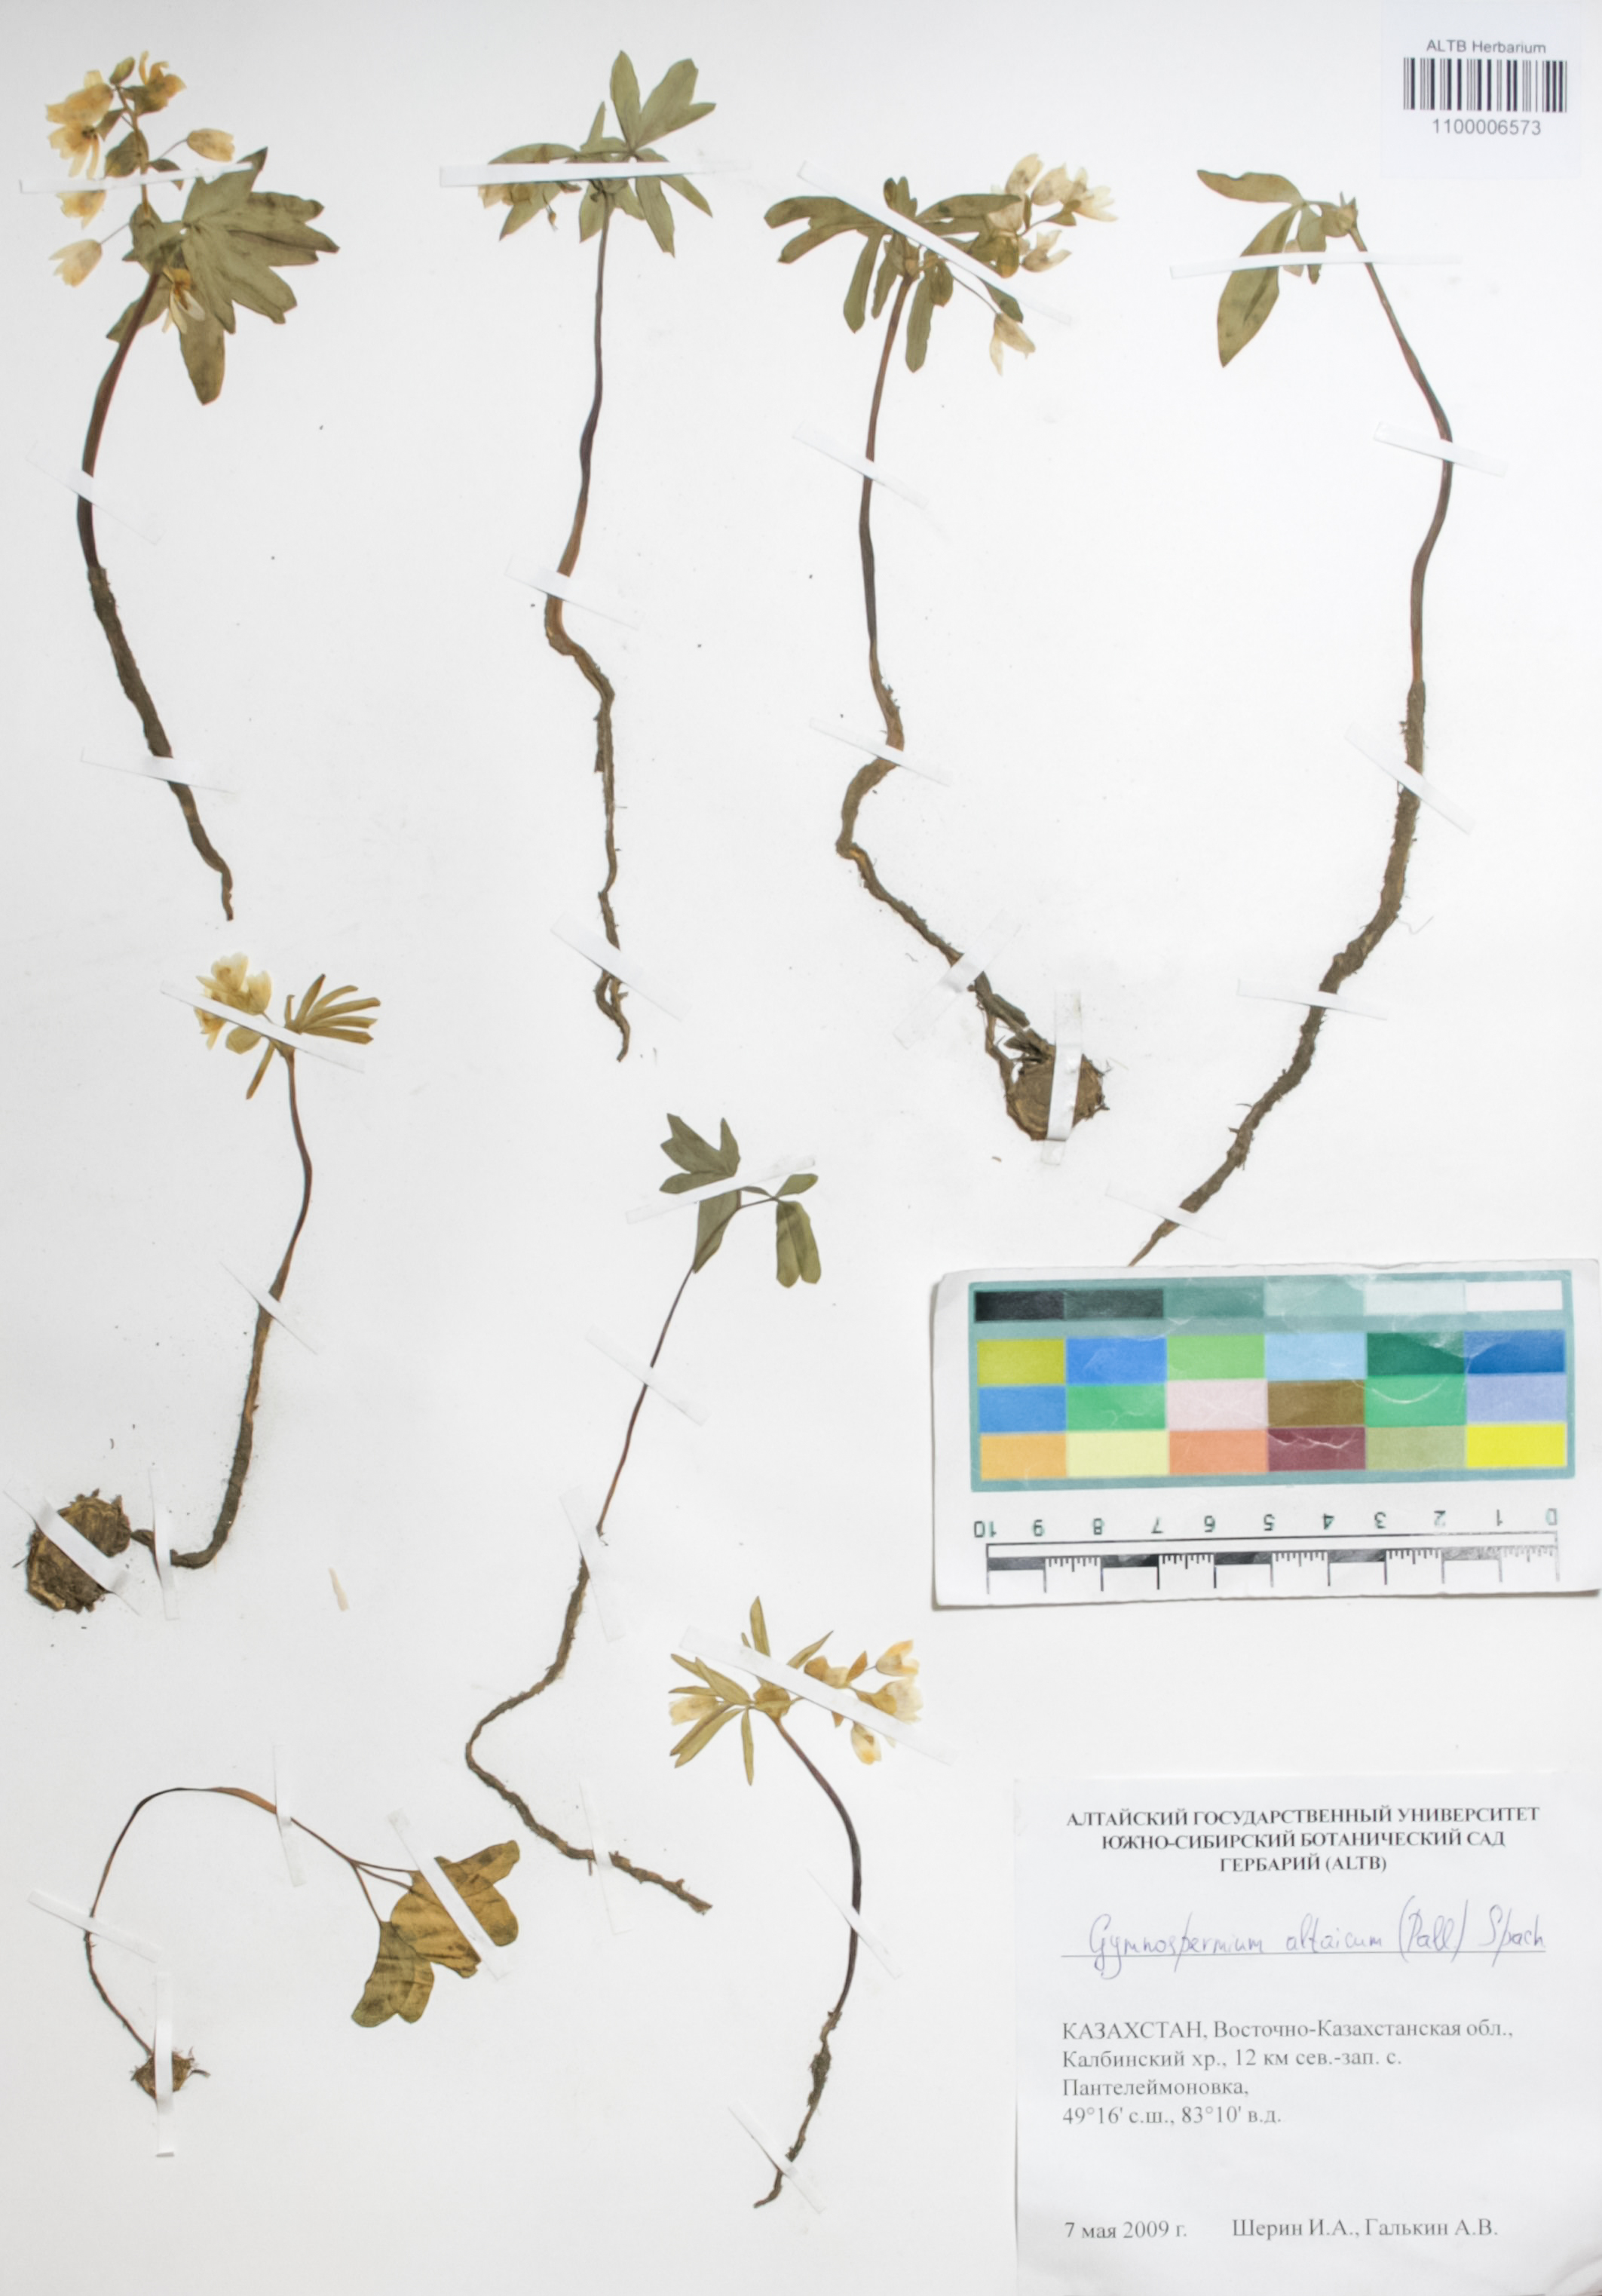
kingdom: Plantae
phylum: Tracheophyta
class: Magnoliopsida
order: Ranunculales
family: Berberidaceae
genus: Gymnospermium
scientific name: Gymnospermium altaicum
